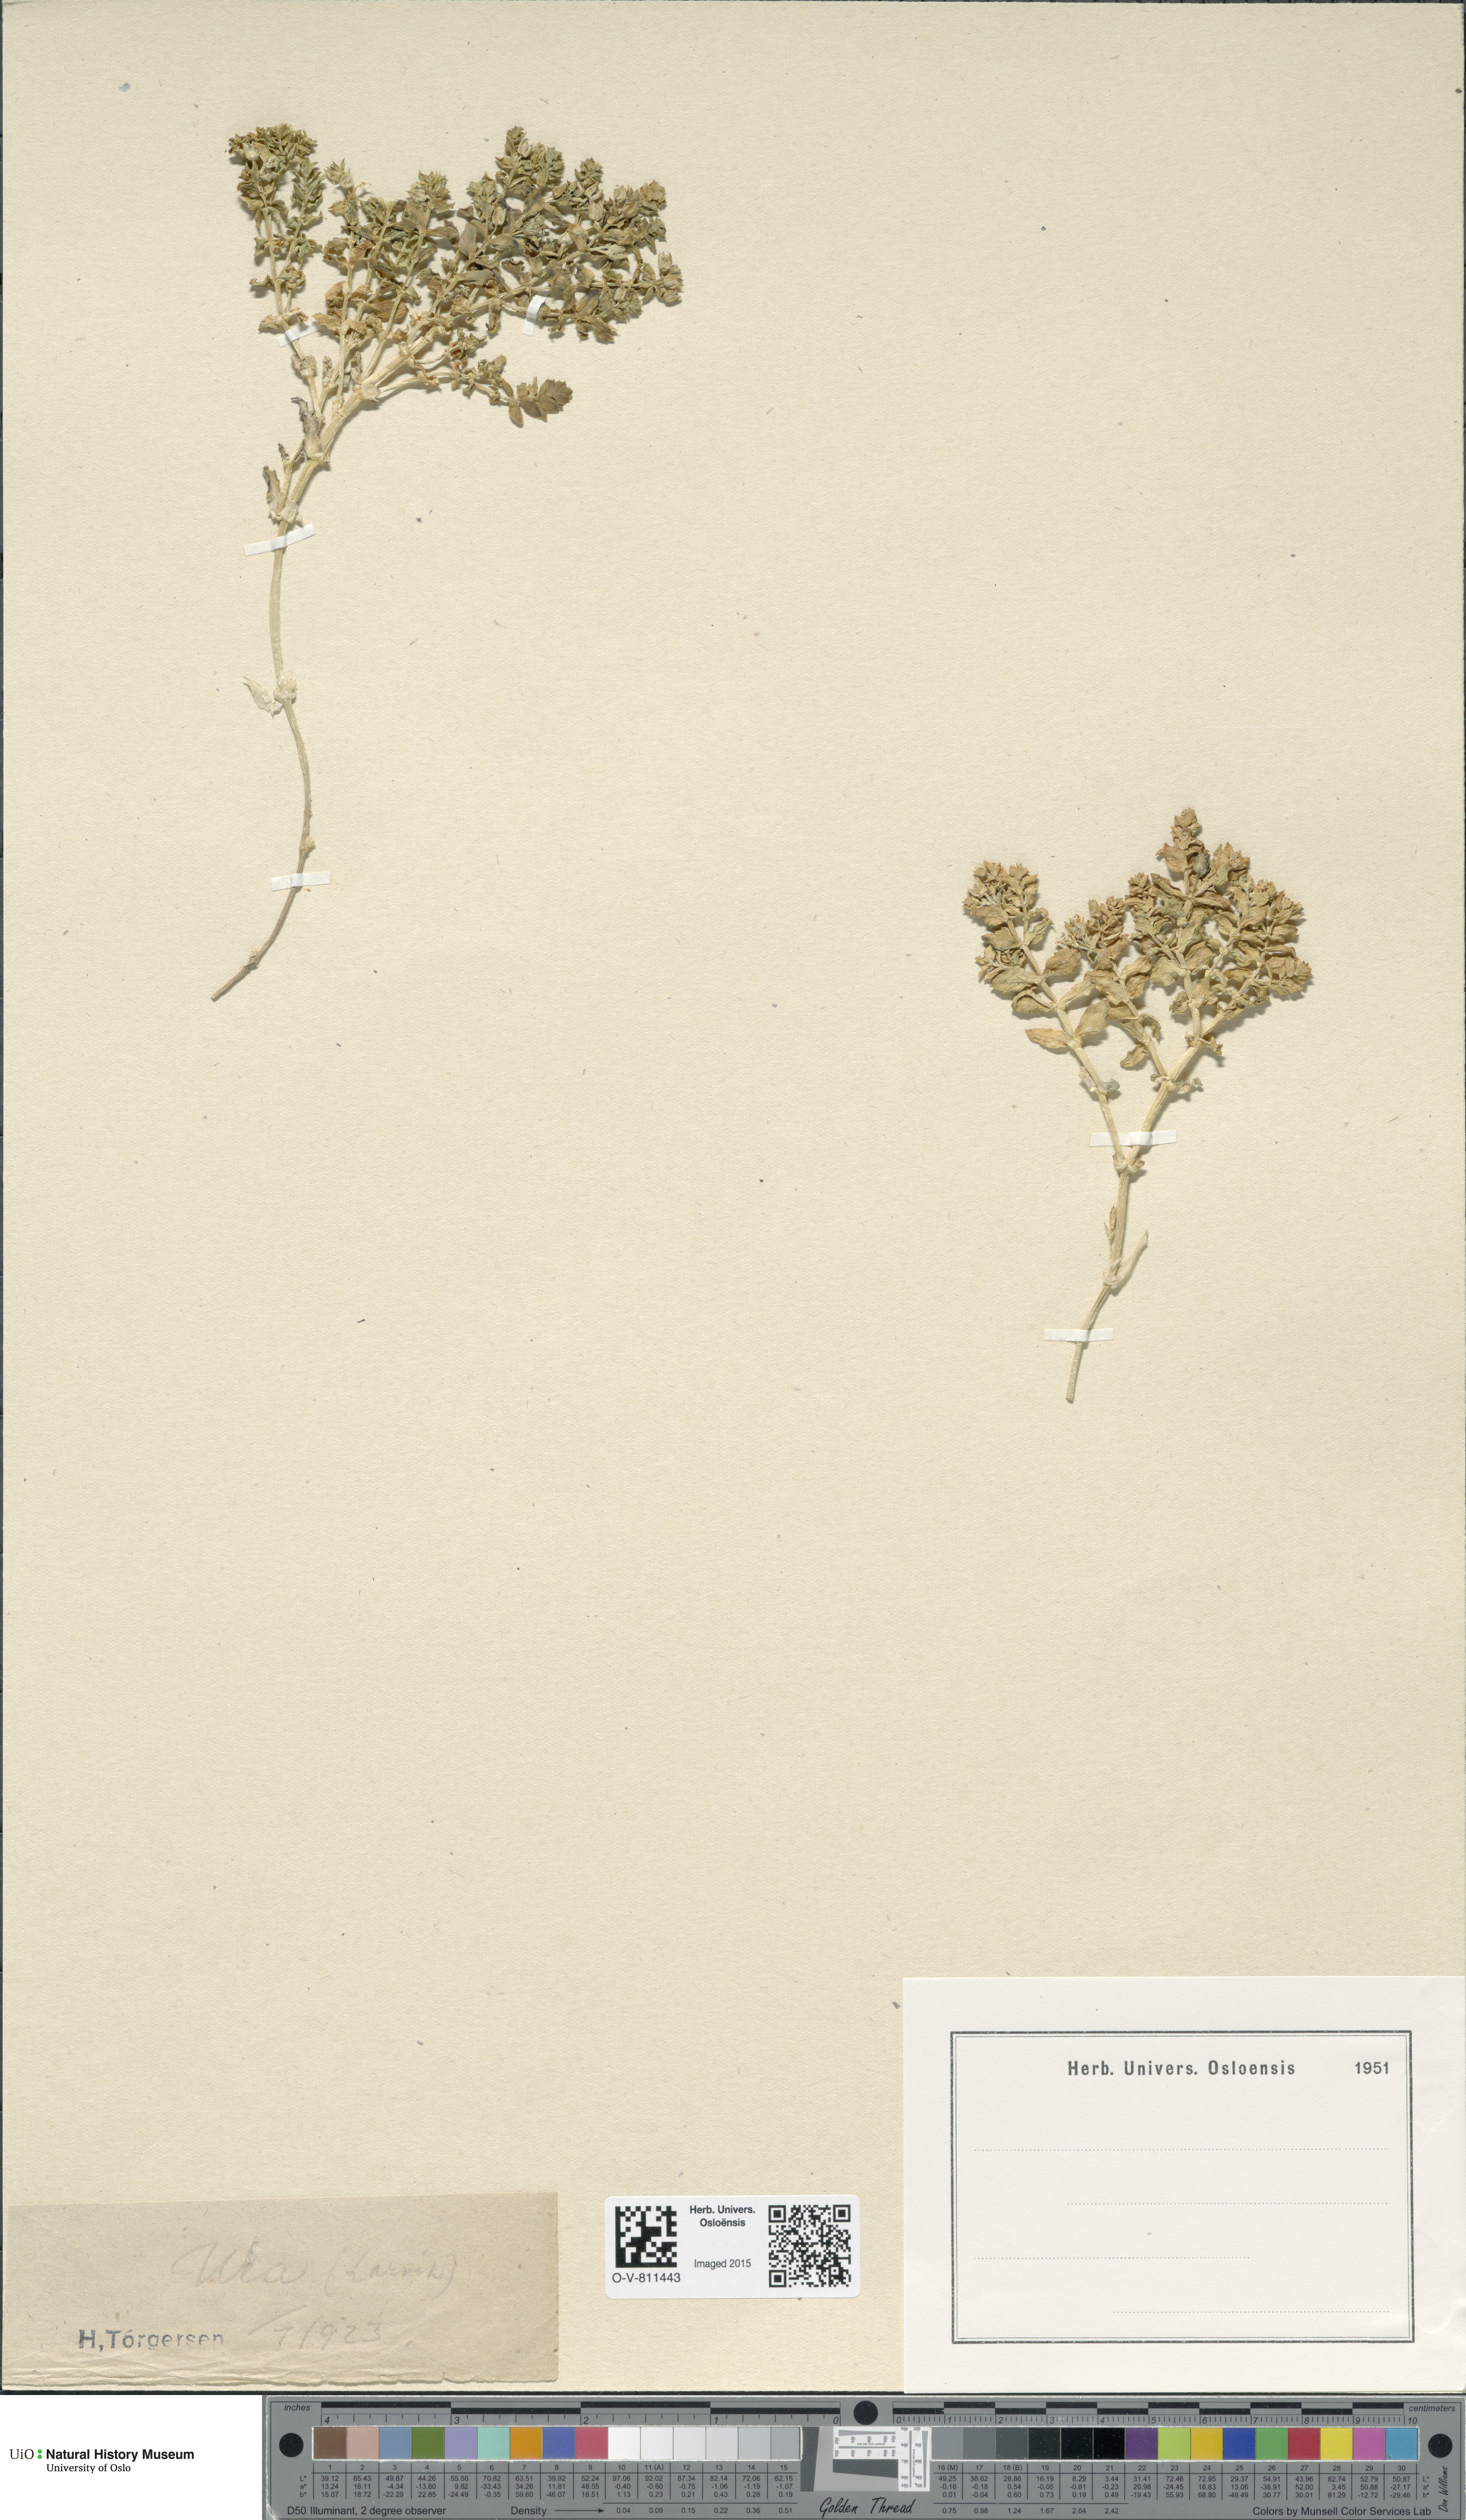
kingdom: Plantae
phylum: Tracheophyta
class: Magnoliopsida
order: Caryophyllales
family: Caryophyllaceae
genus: Honckenya
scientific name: Honckenya peploides
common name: Sea sandwort
